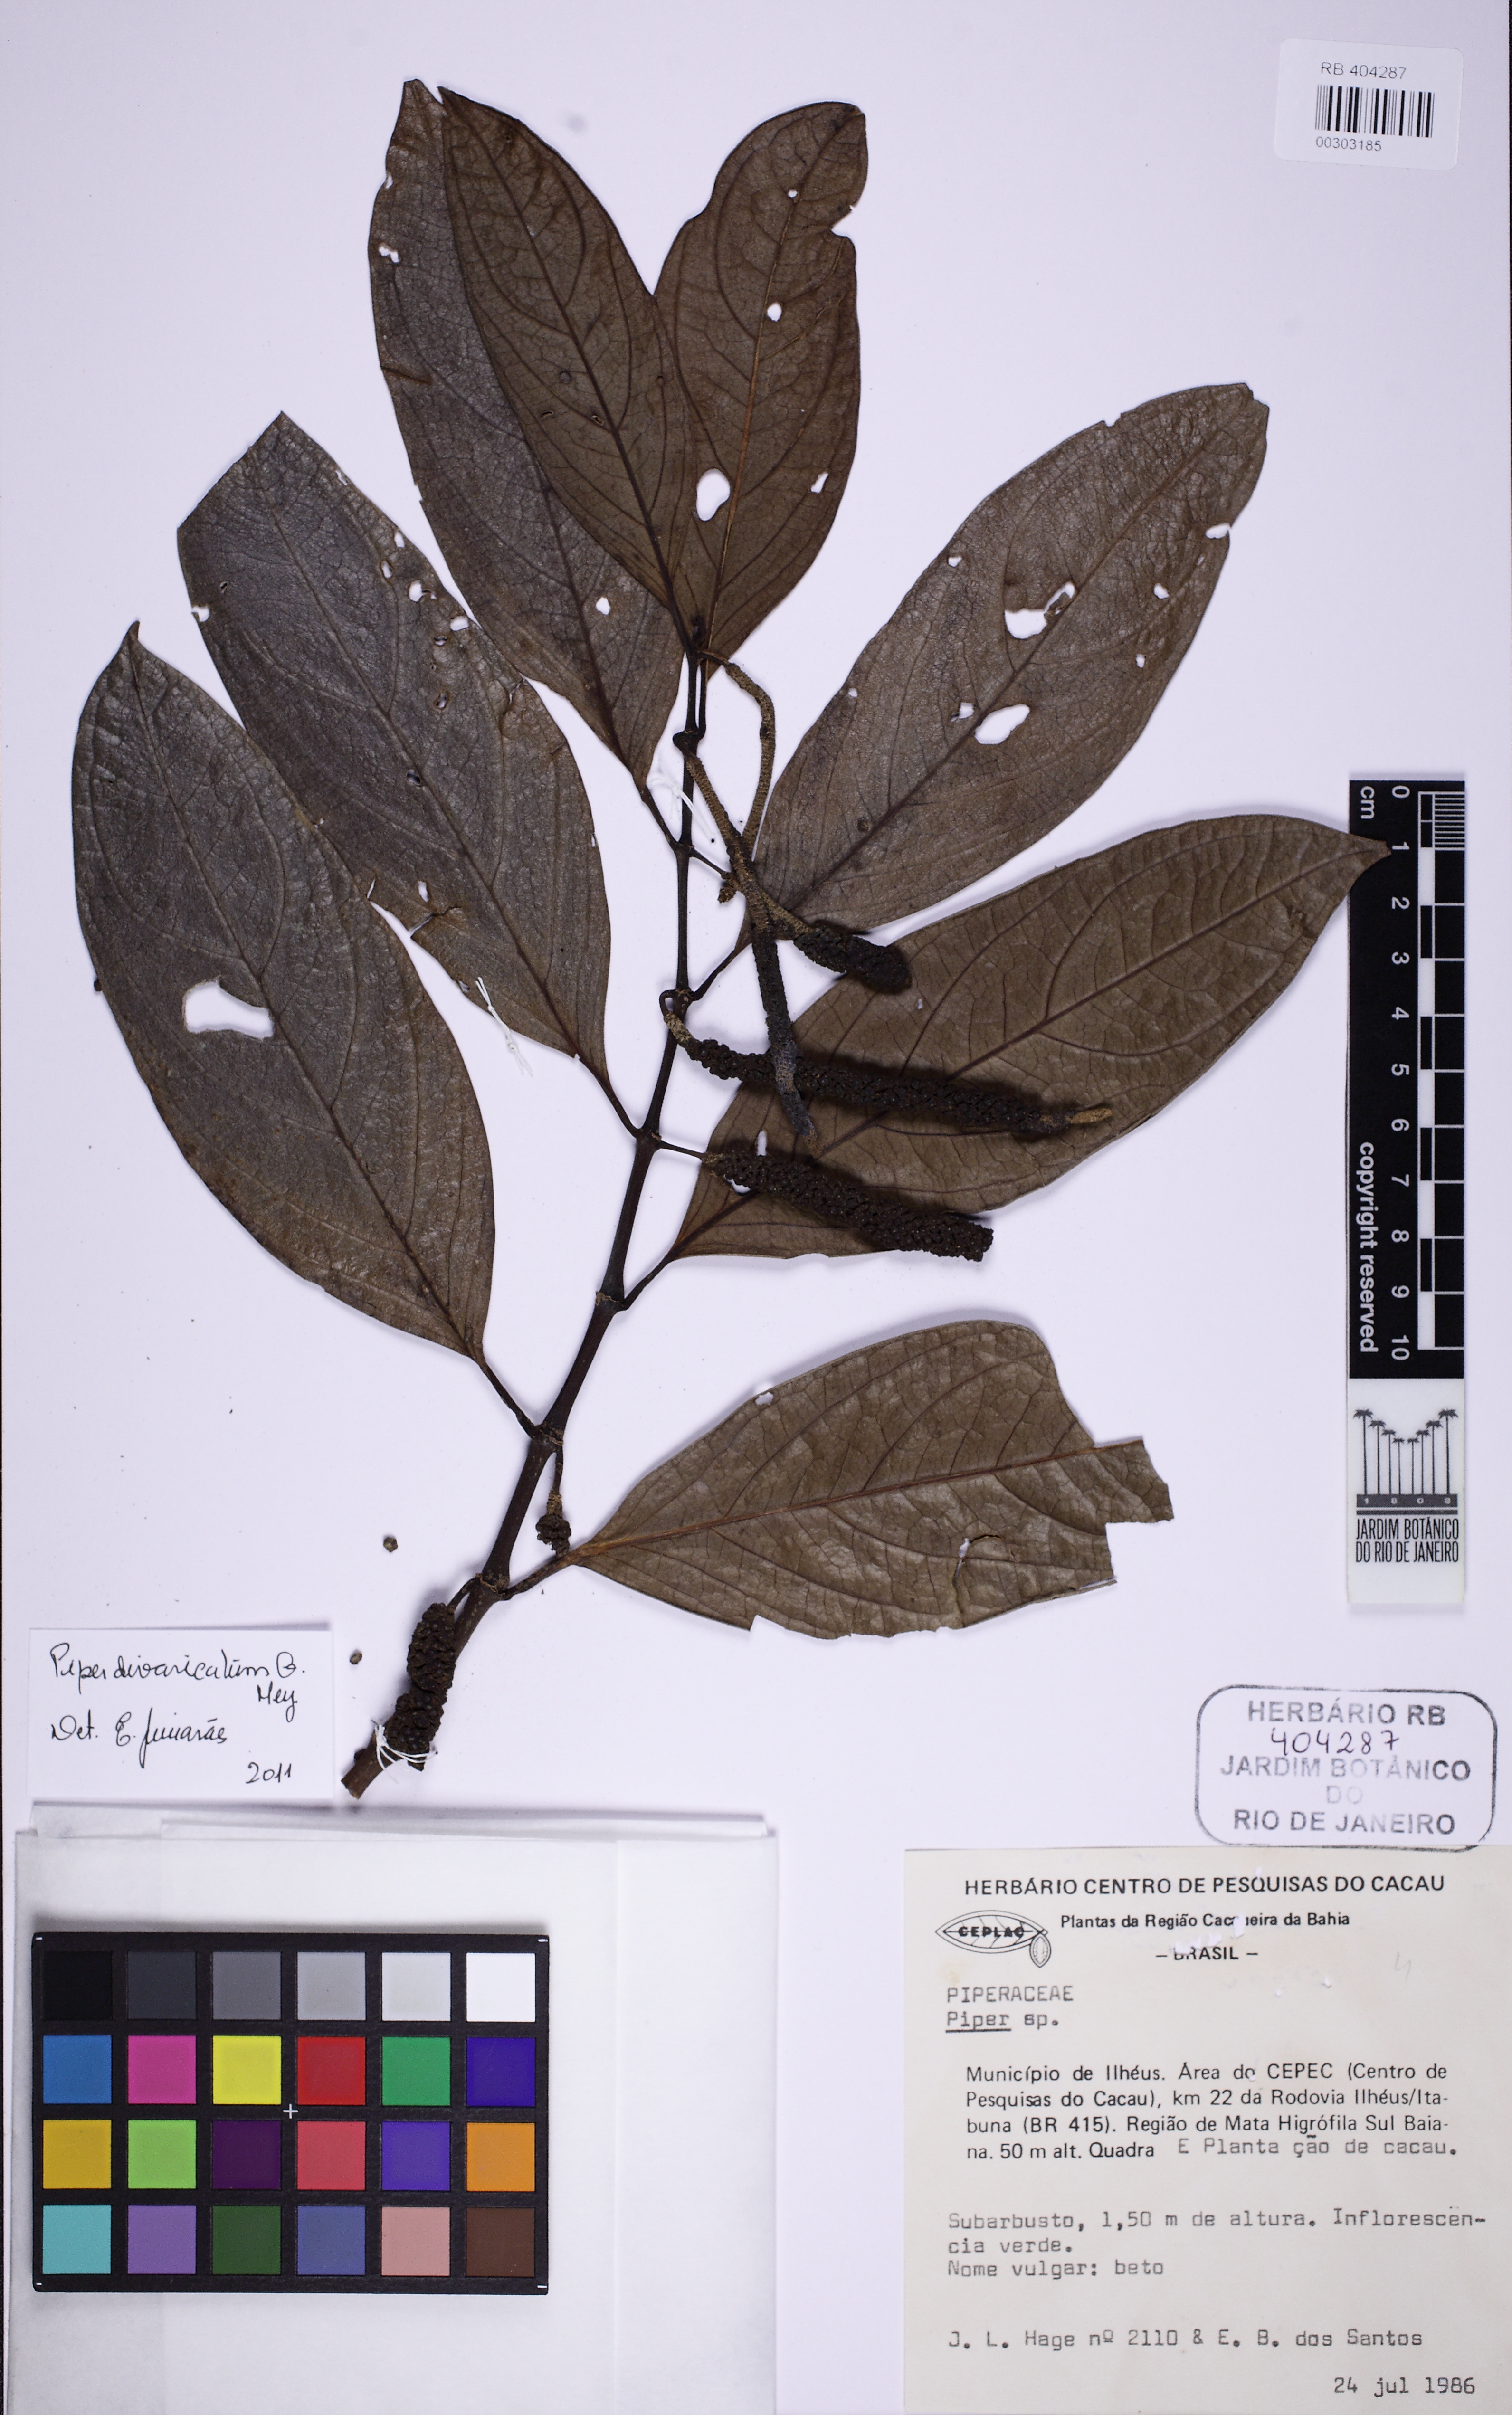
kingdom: Plantae
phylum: Tracheophyta
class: Magnoliopsida
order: Piperales
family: Piperaceae
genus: Piper
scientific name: Piper divaricatum
